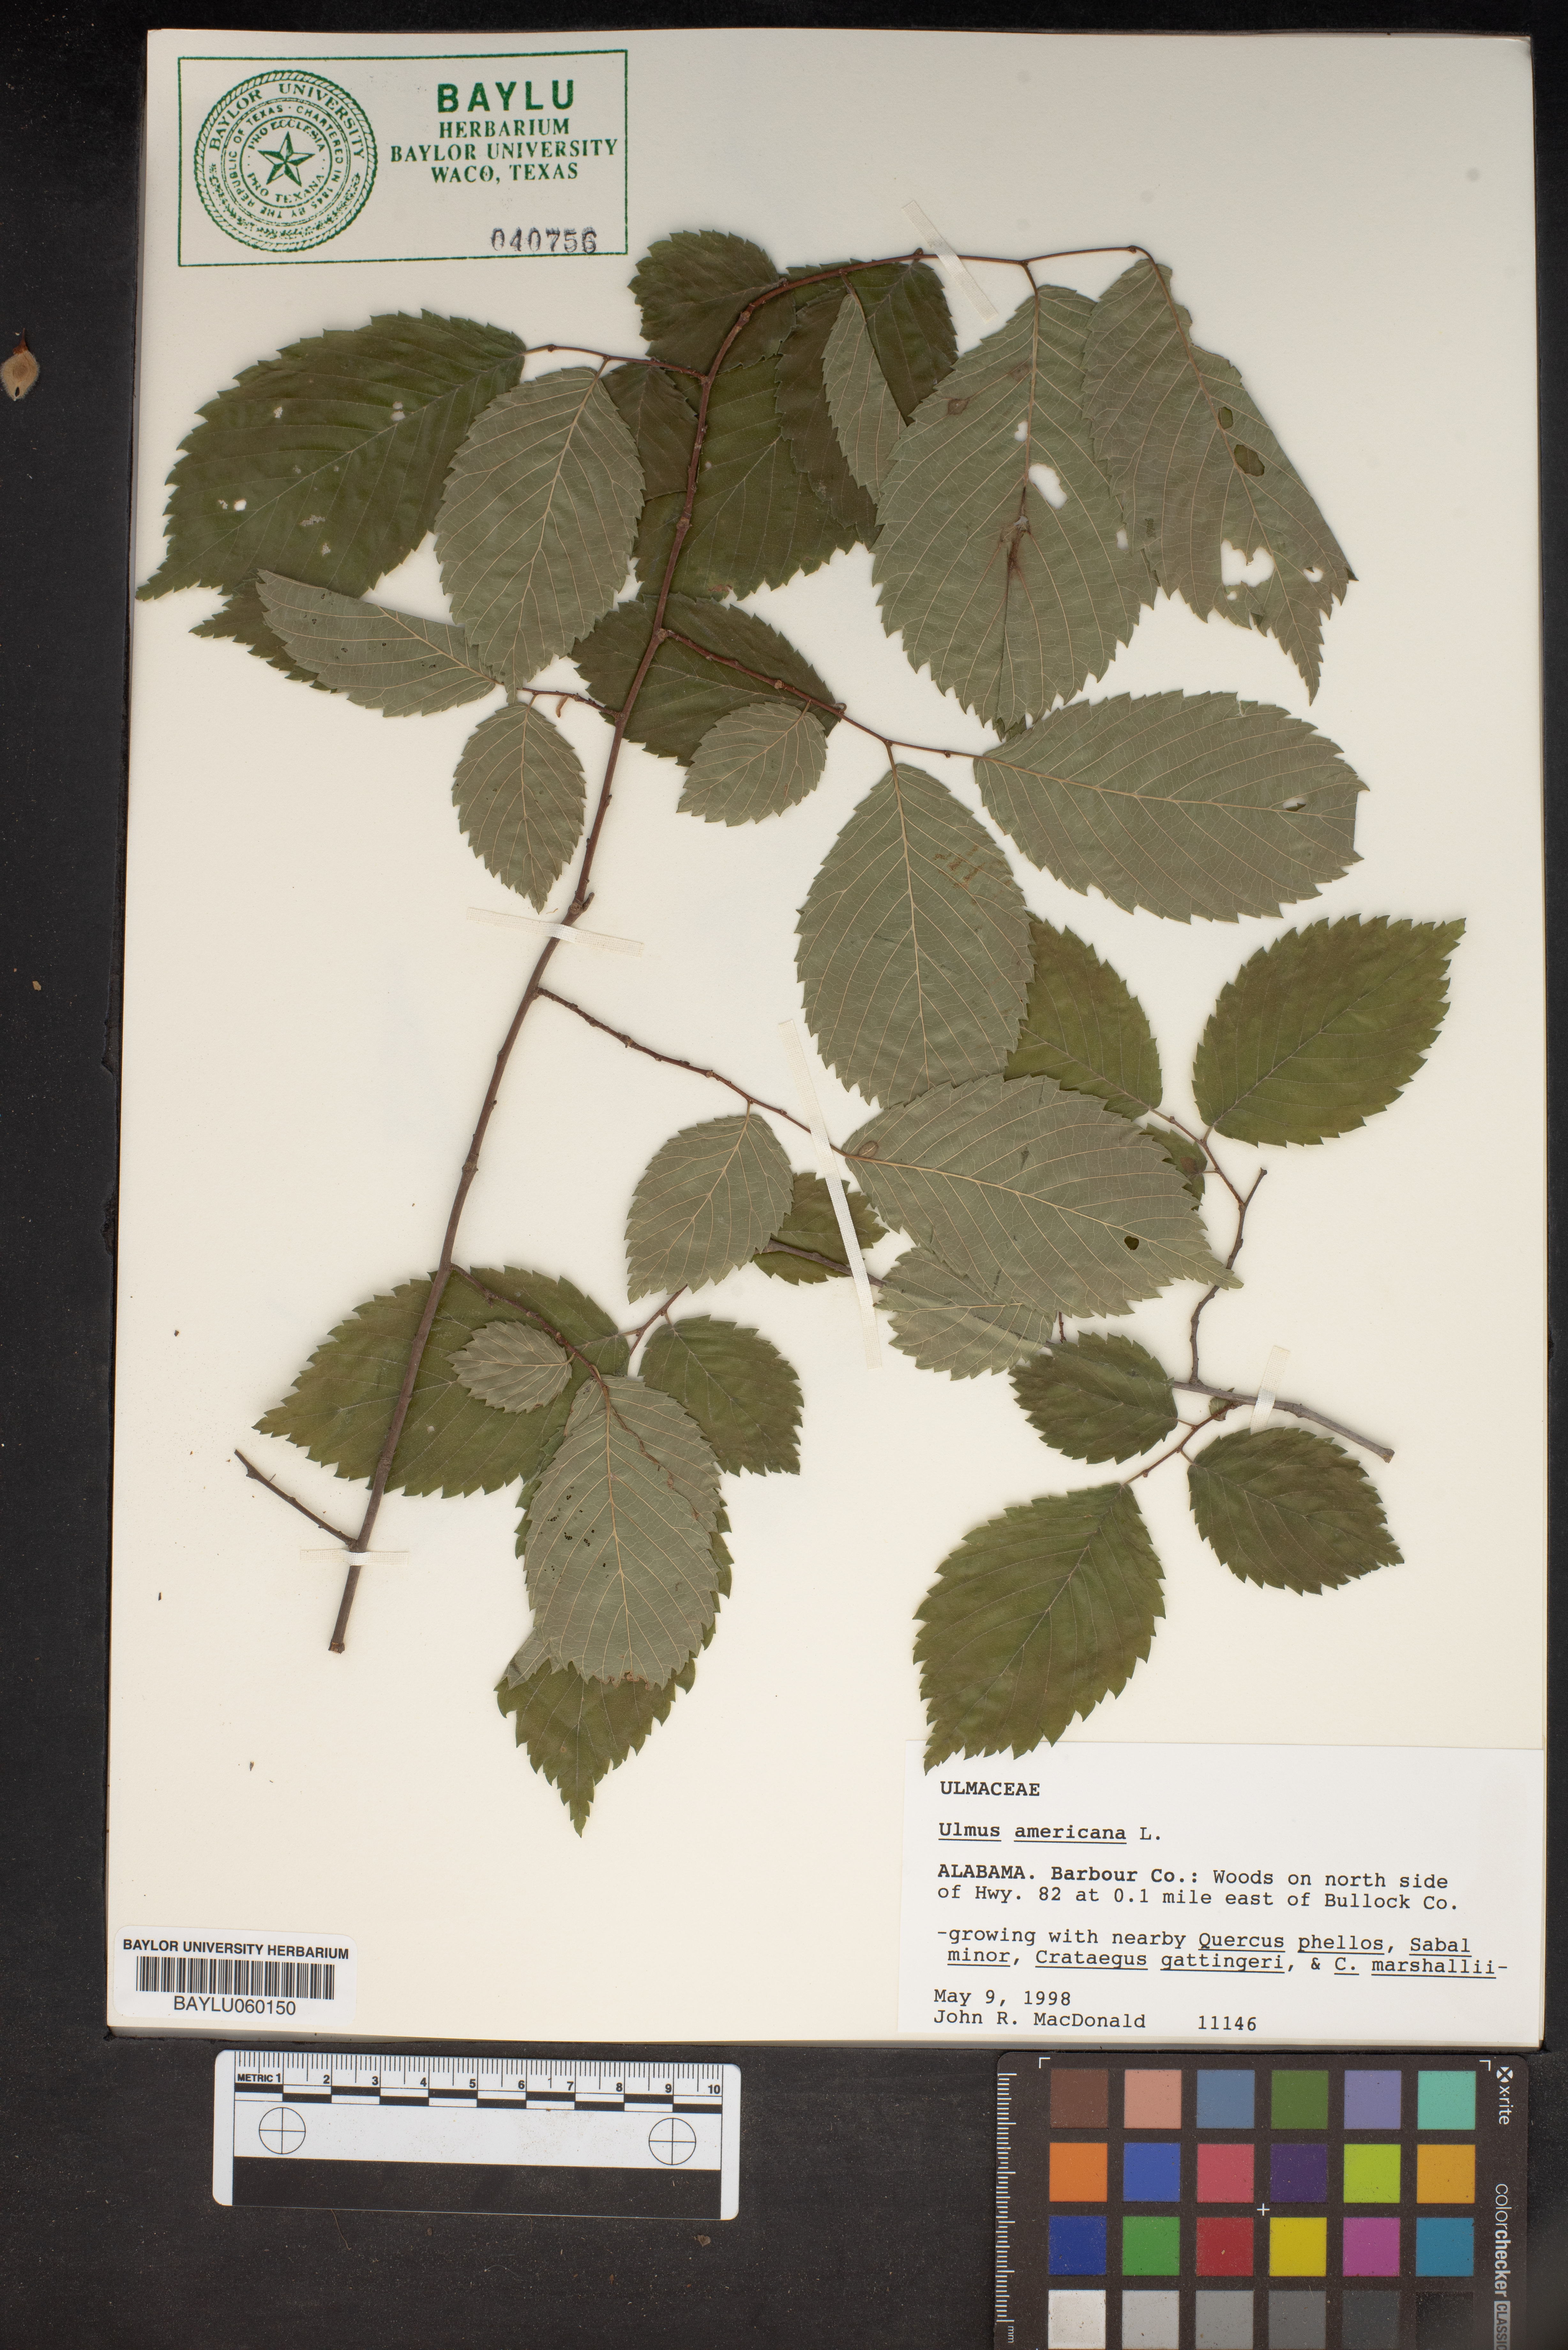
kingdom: Plantae
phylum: Tracheophyta
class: Magnoliopsida
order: Rosales
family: Ulmaceae
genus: Ulmus
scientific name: Ulmus americana
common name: American elm
